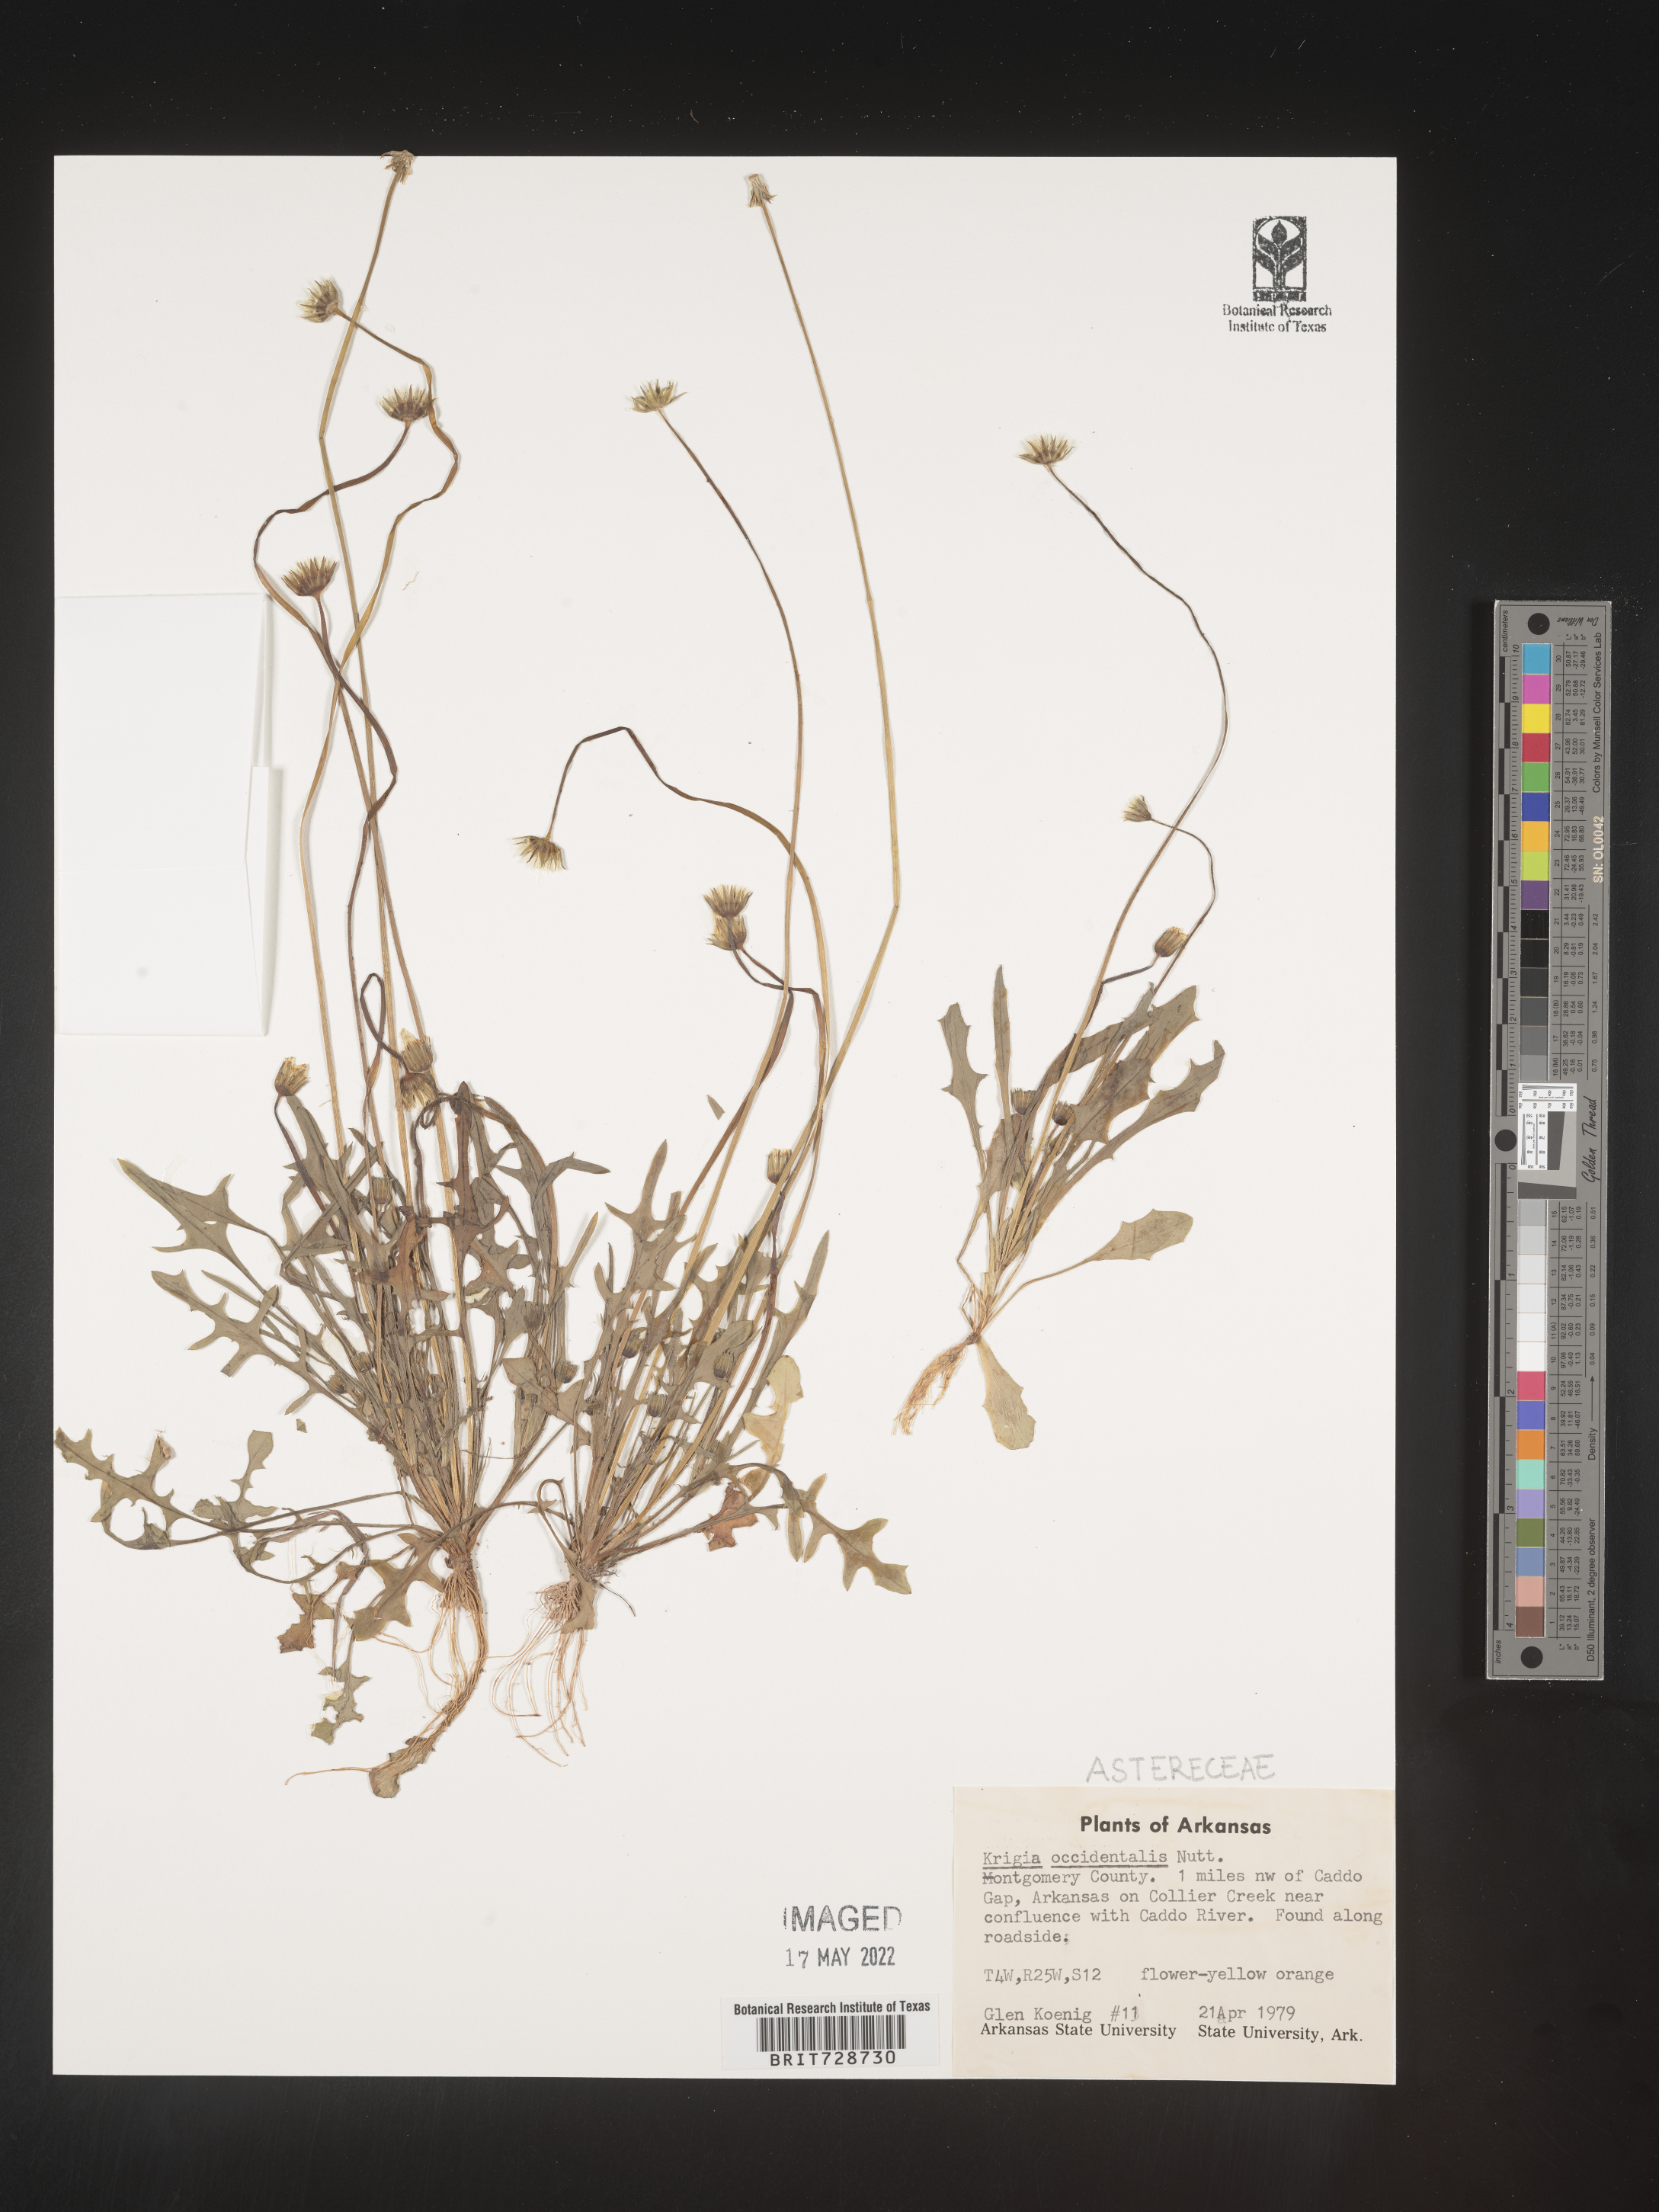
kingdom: Plantae
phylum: Tracheophyta
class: Magnoliopsida
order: Asterales
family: Asteraceae
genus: Krigia
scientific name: Krigia occidentalis
